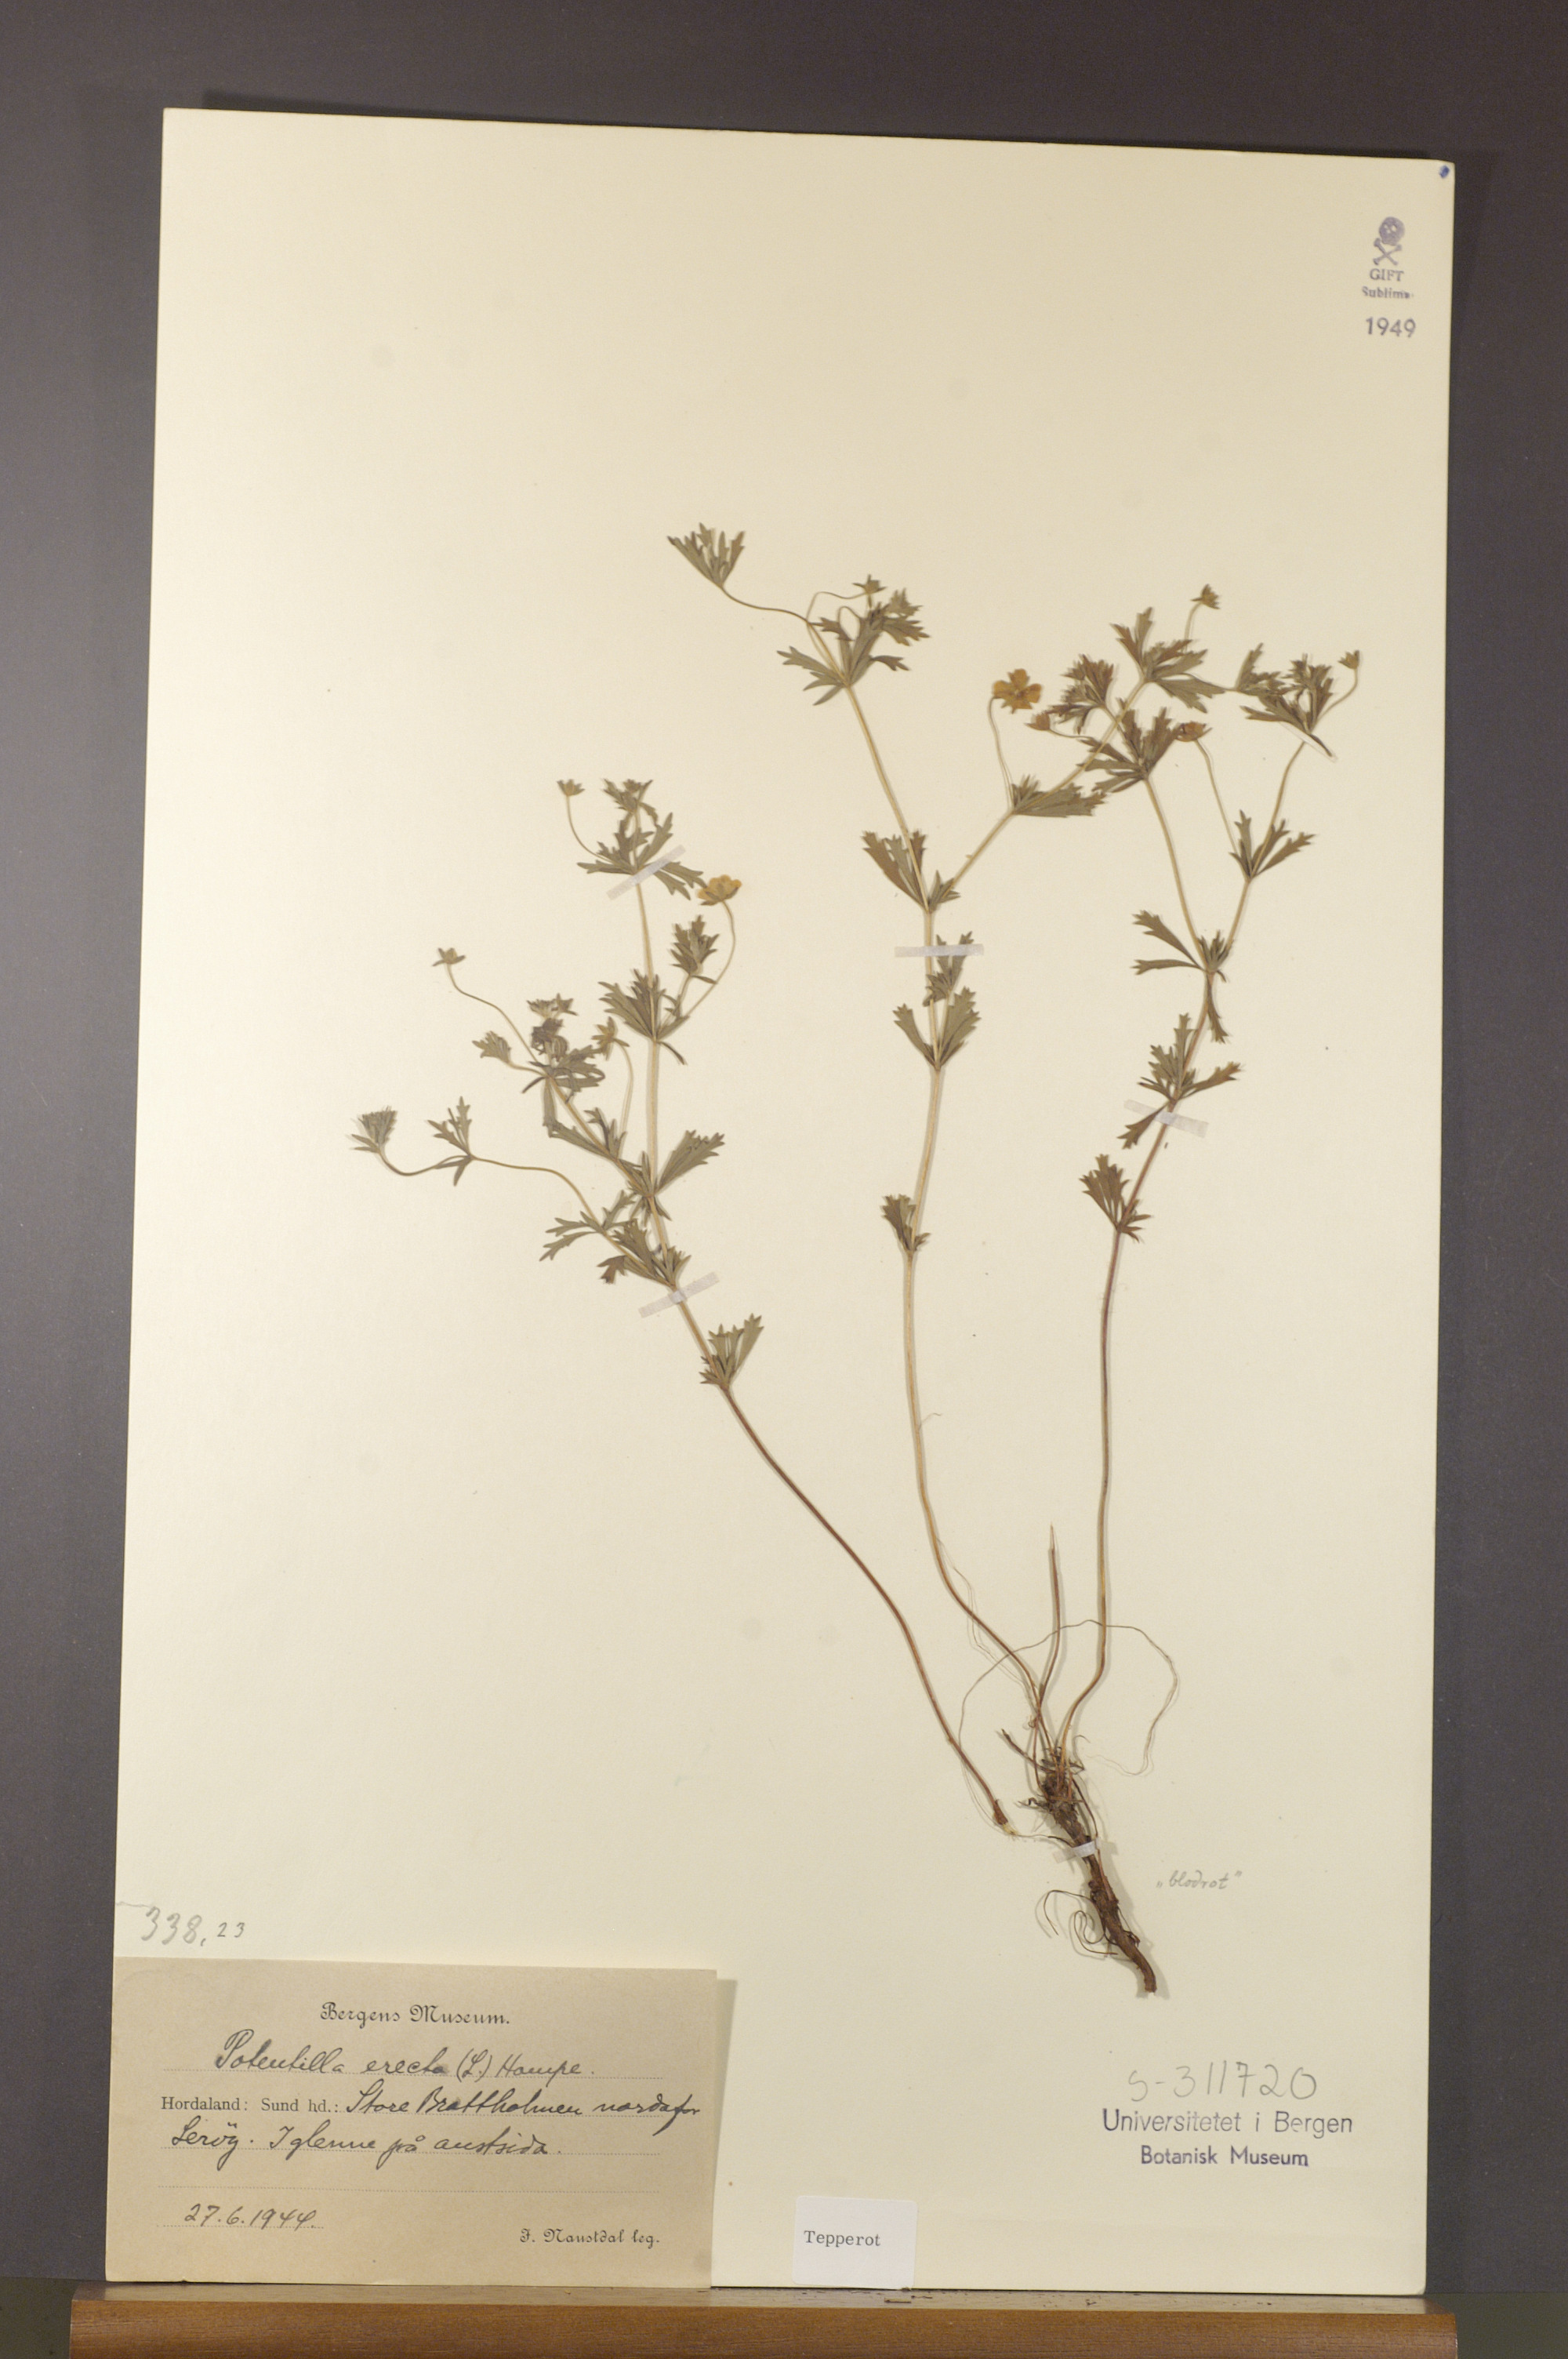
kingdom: Plantae
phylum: Tracheophyta
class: Magnoliopsida
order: Rosales
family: Rosaceae
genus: Potentilla
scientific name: Potentilla erecta
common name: Tormentil
